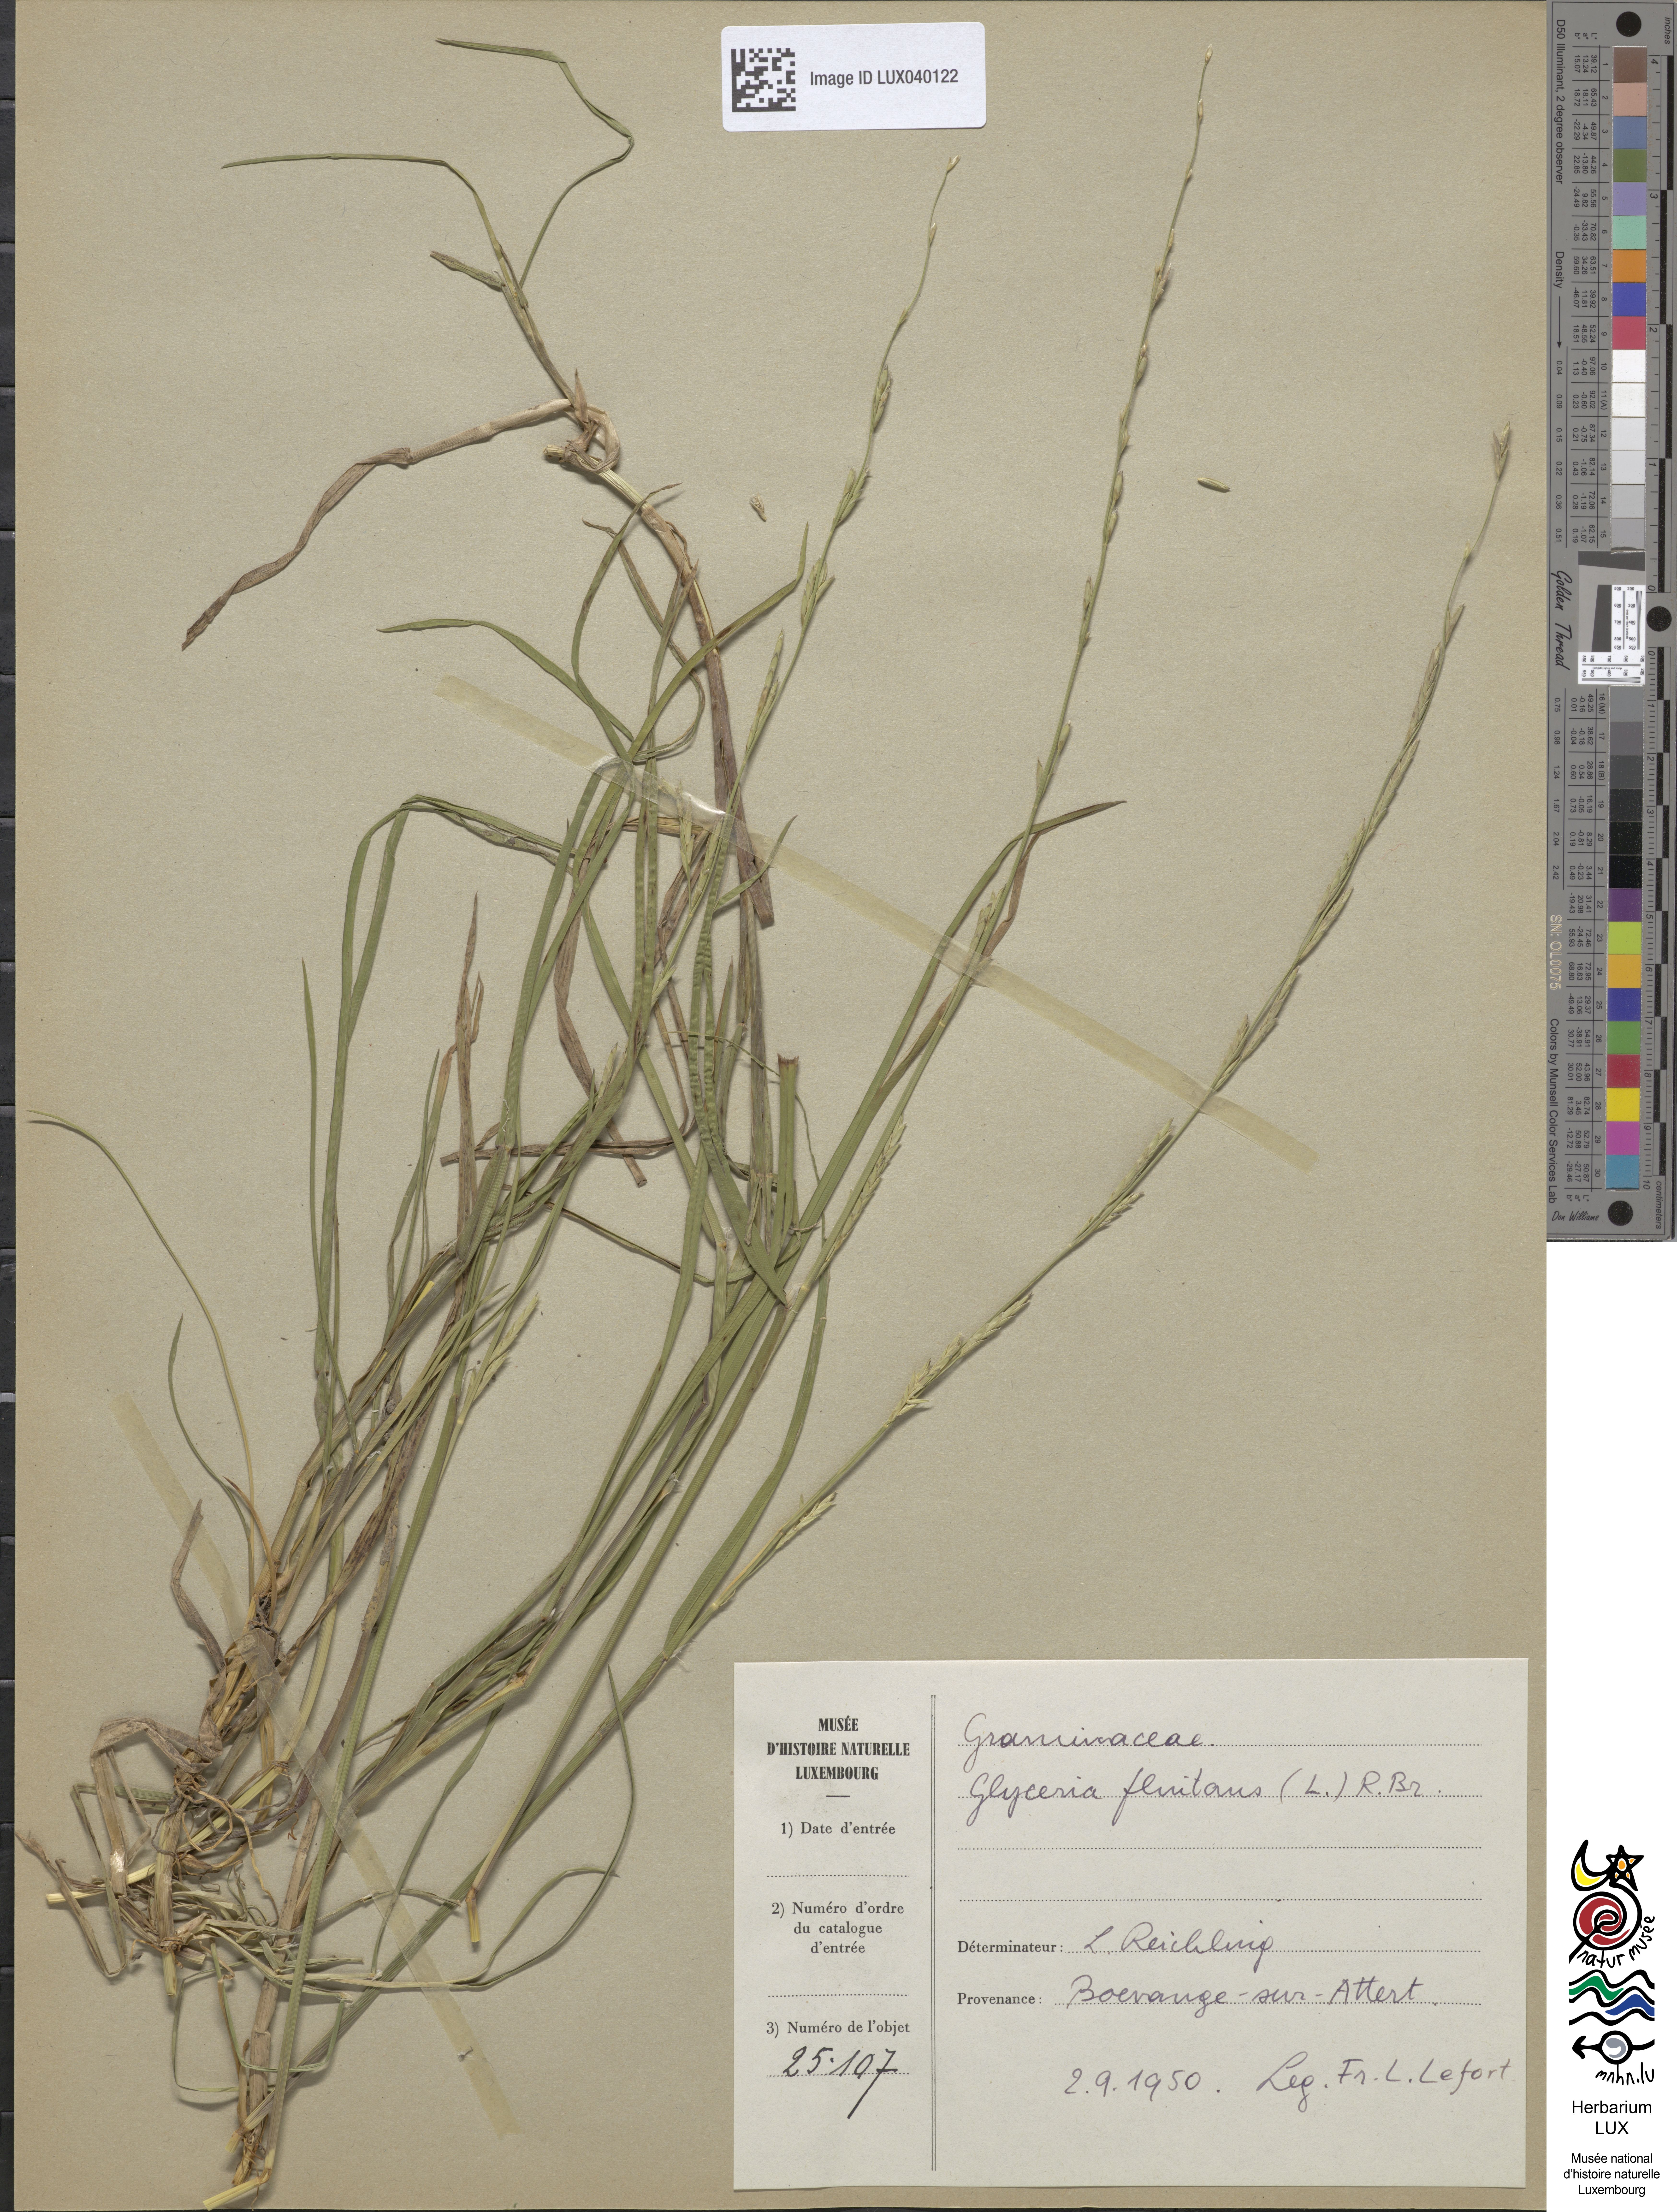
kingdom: Plantae
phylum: Tracheophyta
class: Liliopsida
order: Poales
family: Poaceae
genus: Glyceria
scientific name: Glyceria fluitans
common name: Floating sweet-grass
